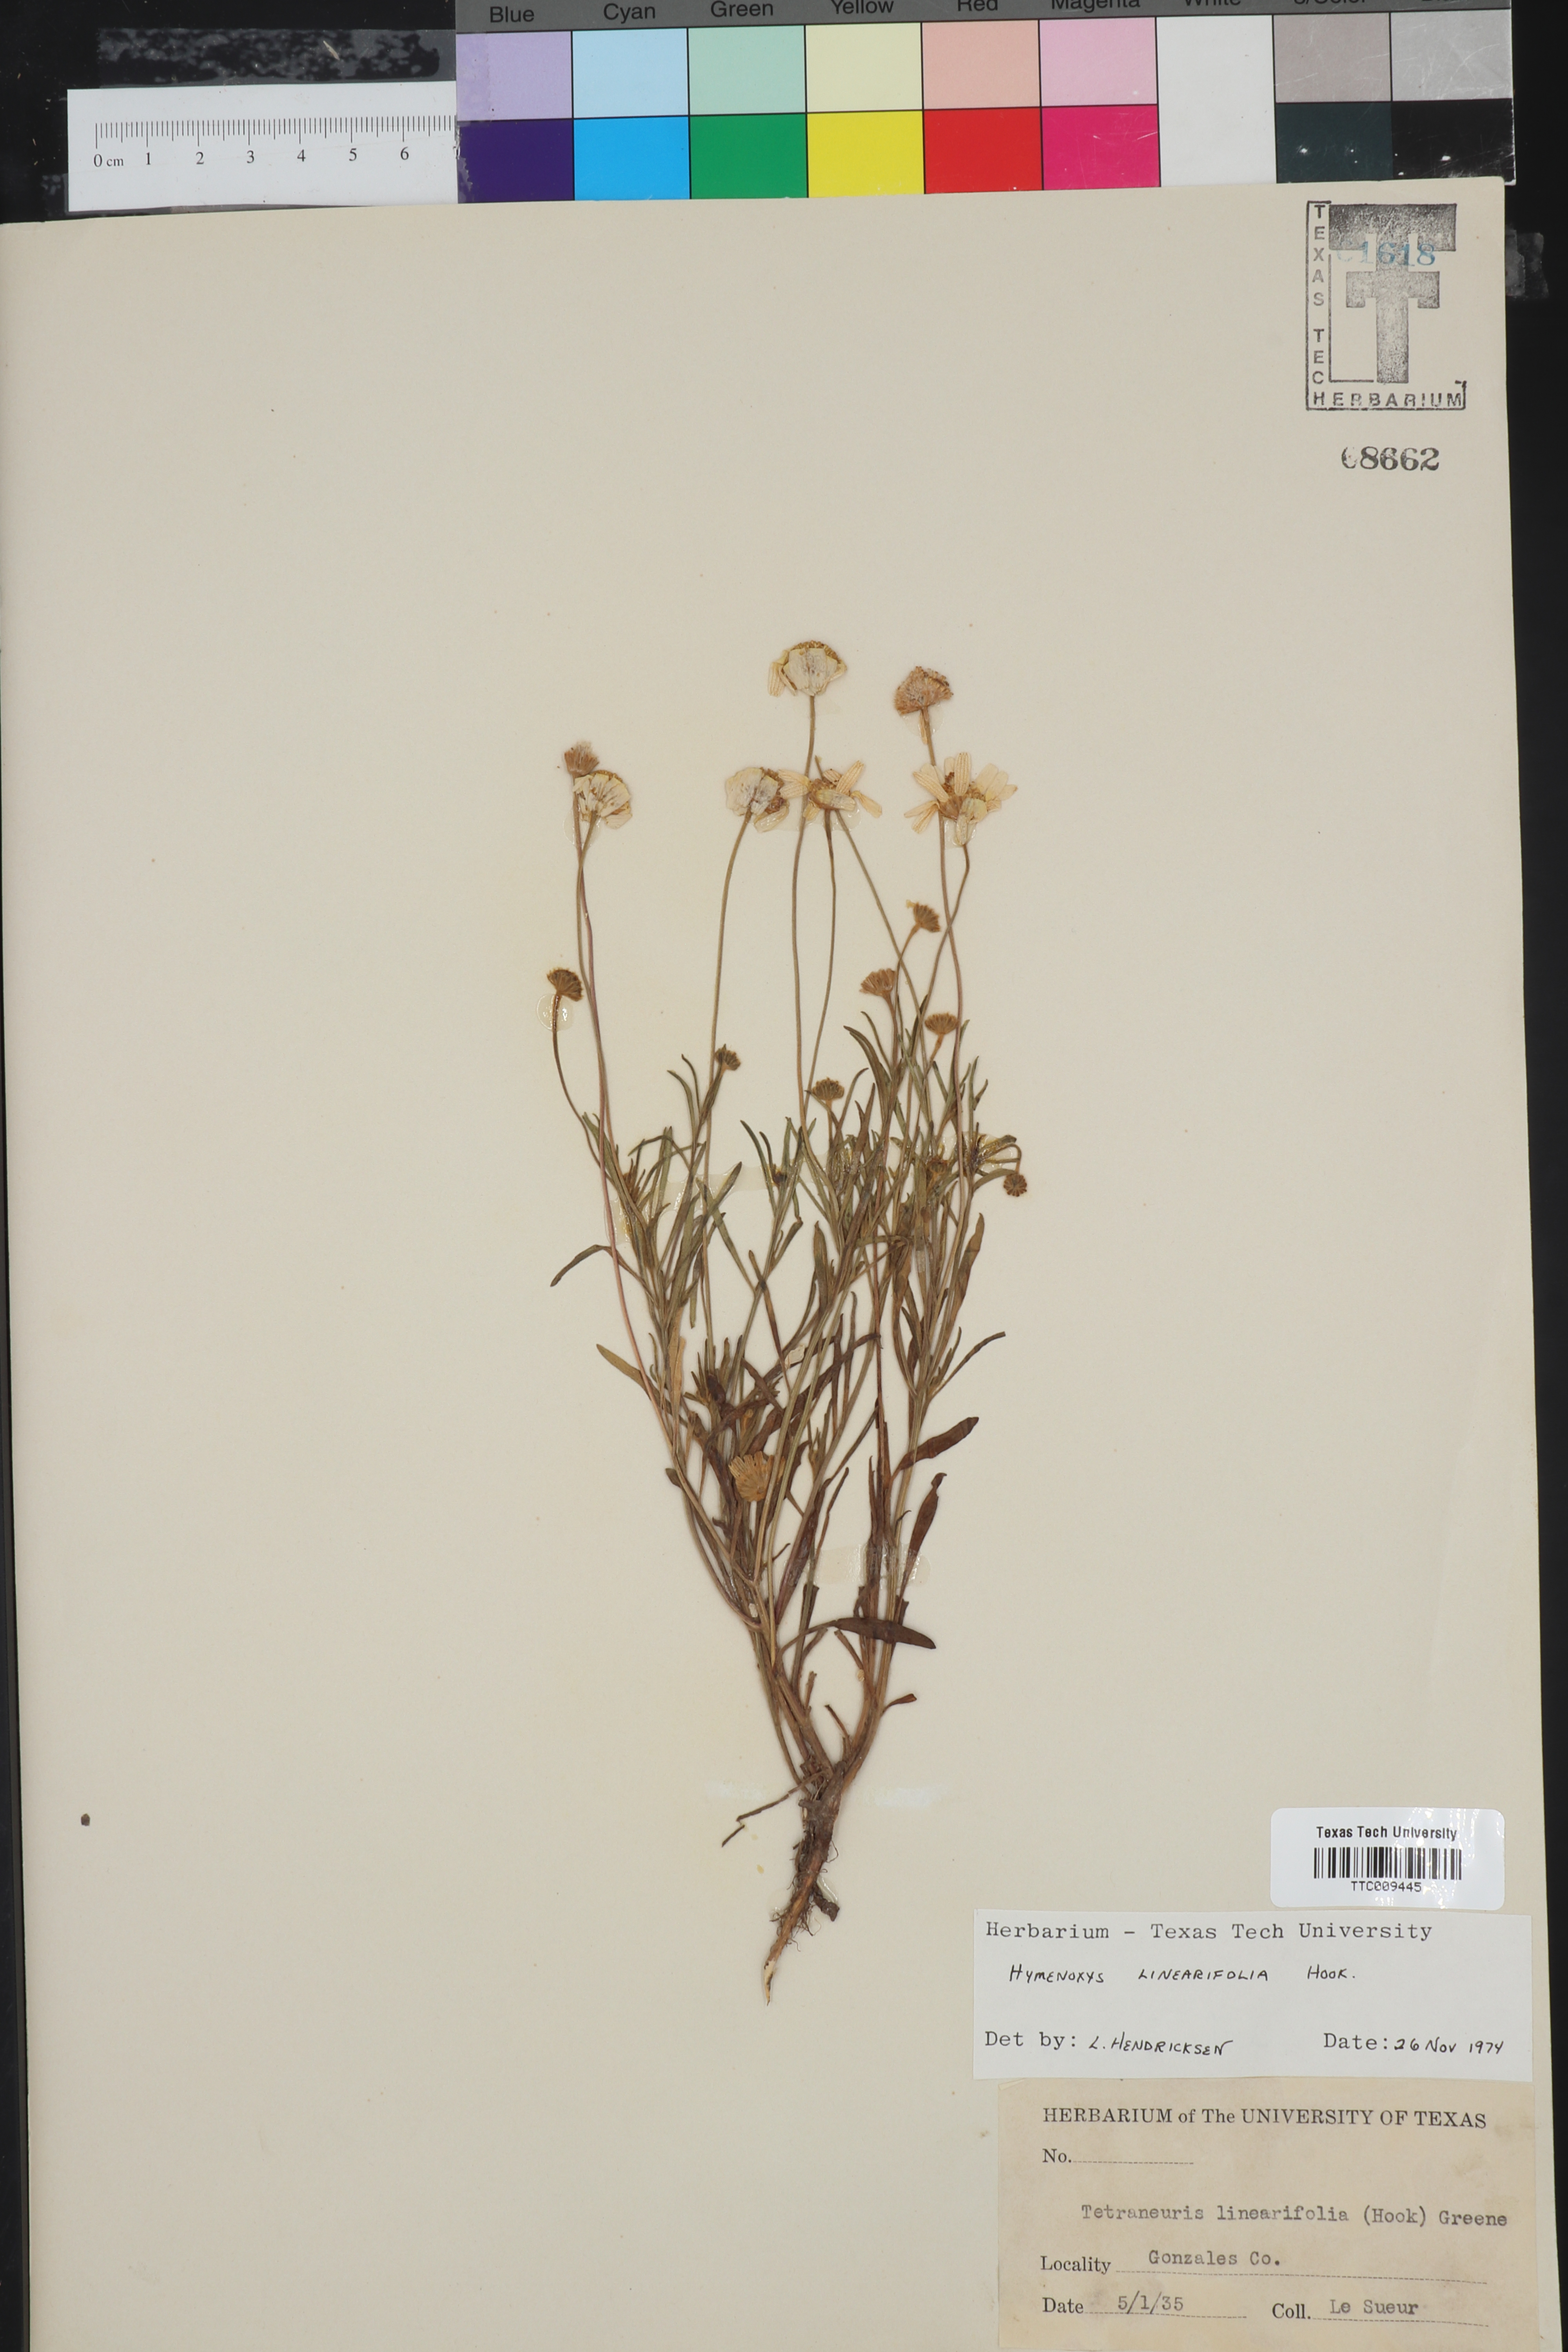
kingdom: Plantae
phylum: Tracheophyta
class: Magnoliopsida
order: Asterales
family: Asteraceae
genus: Tetraneuris
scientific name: Tetraneuris linearifolia
